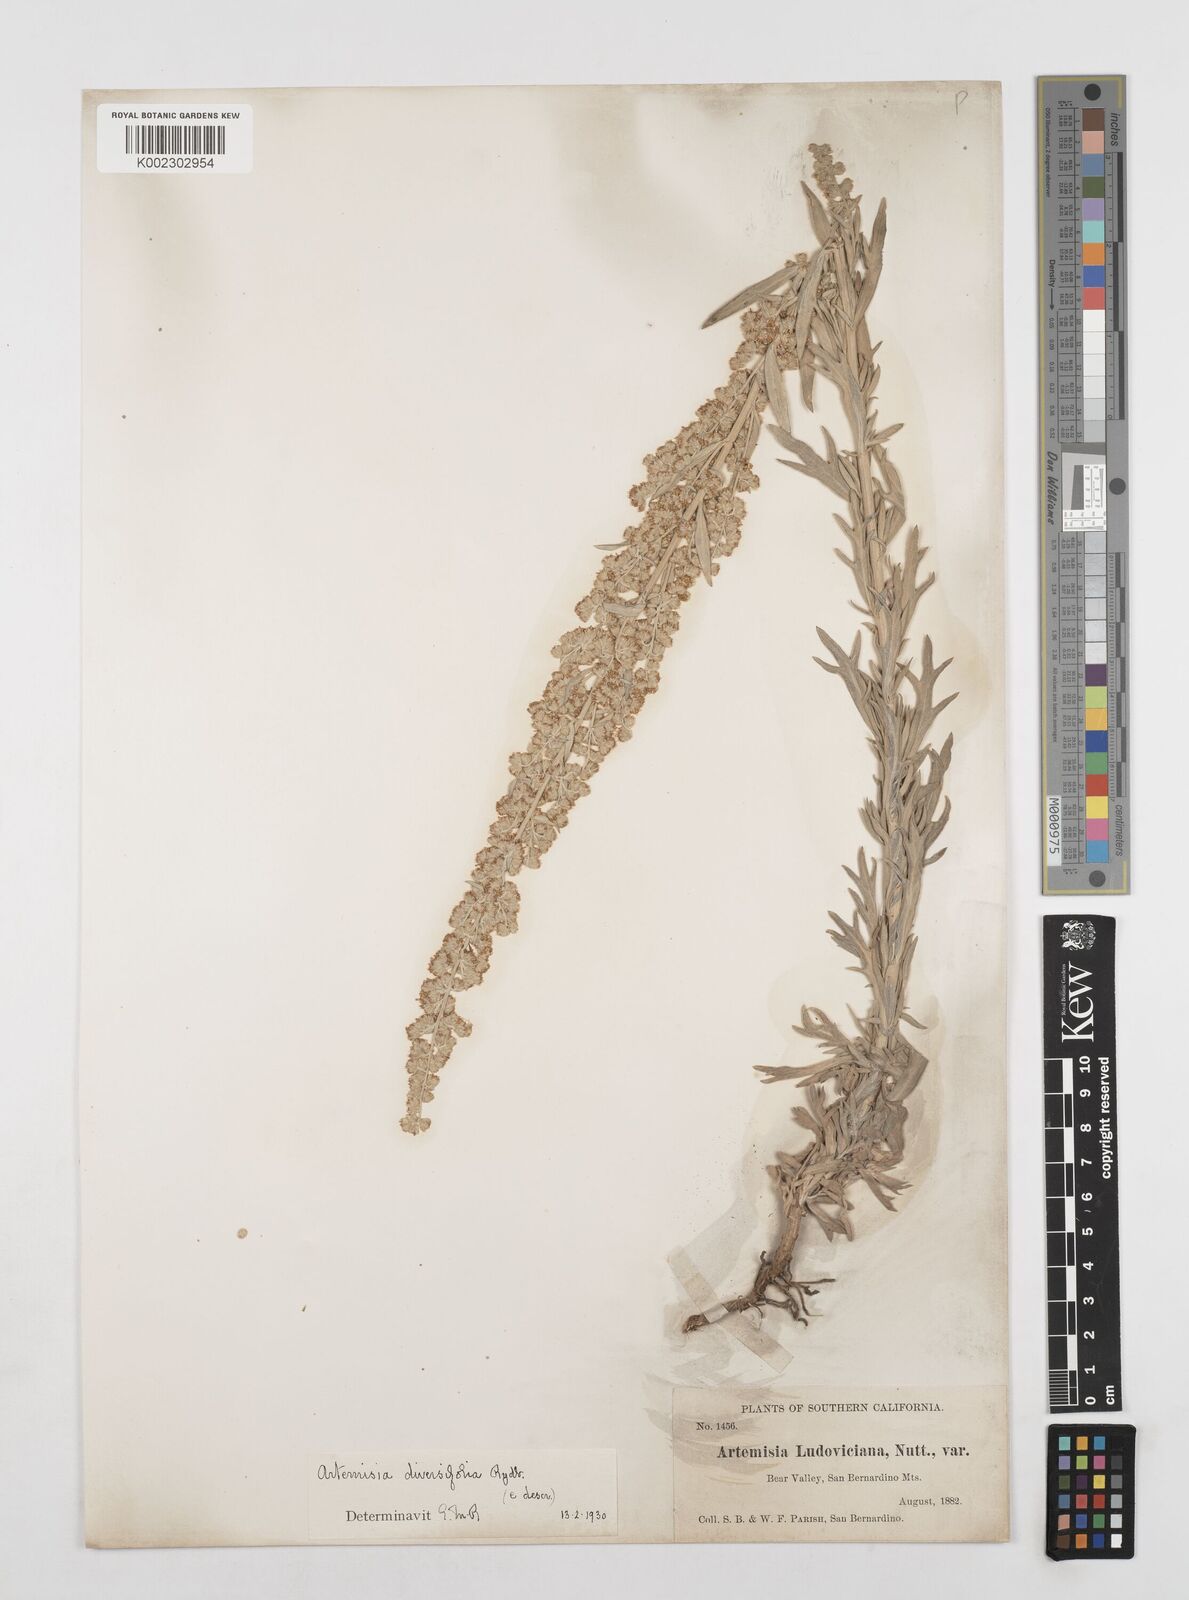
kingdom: Plantae
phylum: Tracheophyta
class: Magnoliopsida
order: Asterales
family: Asteraceae
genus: Artemisia
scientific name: Artemisia ludoviciana
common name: Western mugwort
